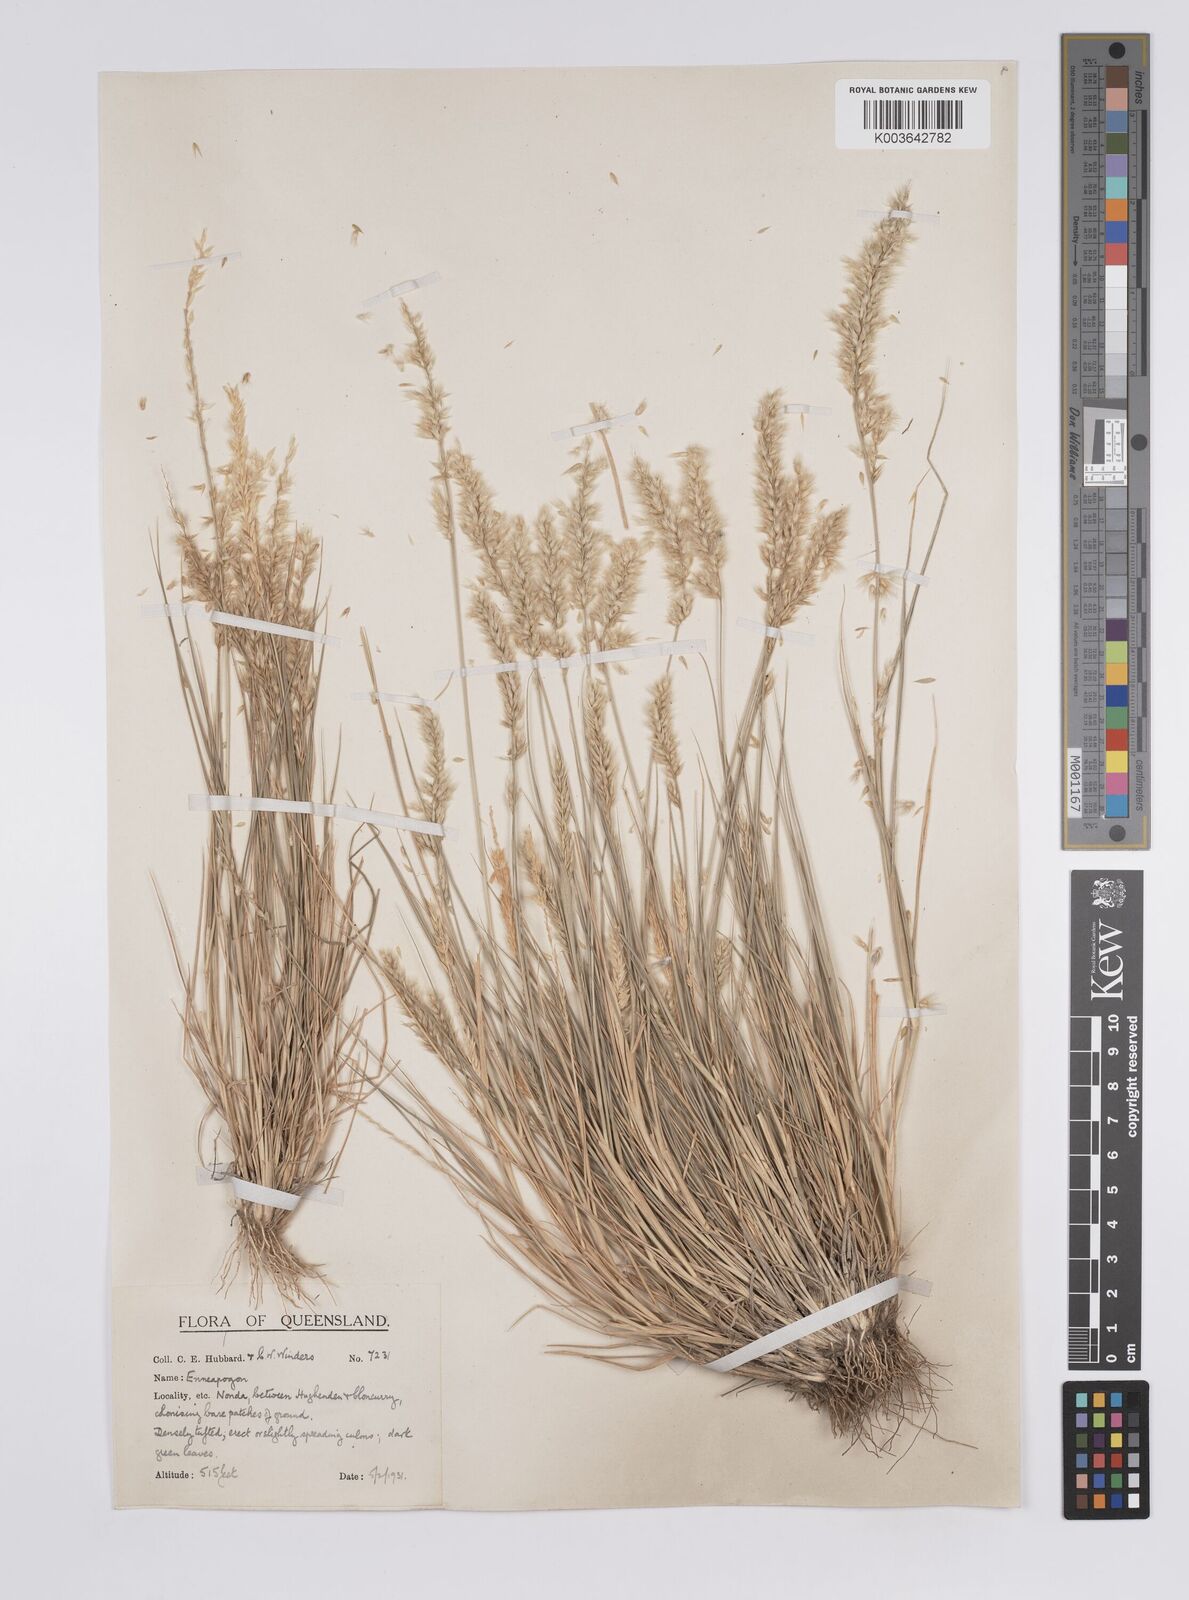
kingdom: Plantae
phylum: Tracheophyta
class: Liliopsida
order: Poales
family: Poaceae
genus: Enneapogon
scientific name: Enneapogon polyphyllus
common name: Leafy nineawn
